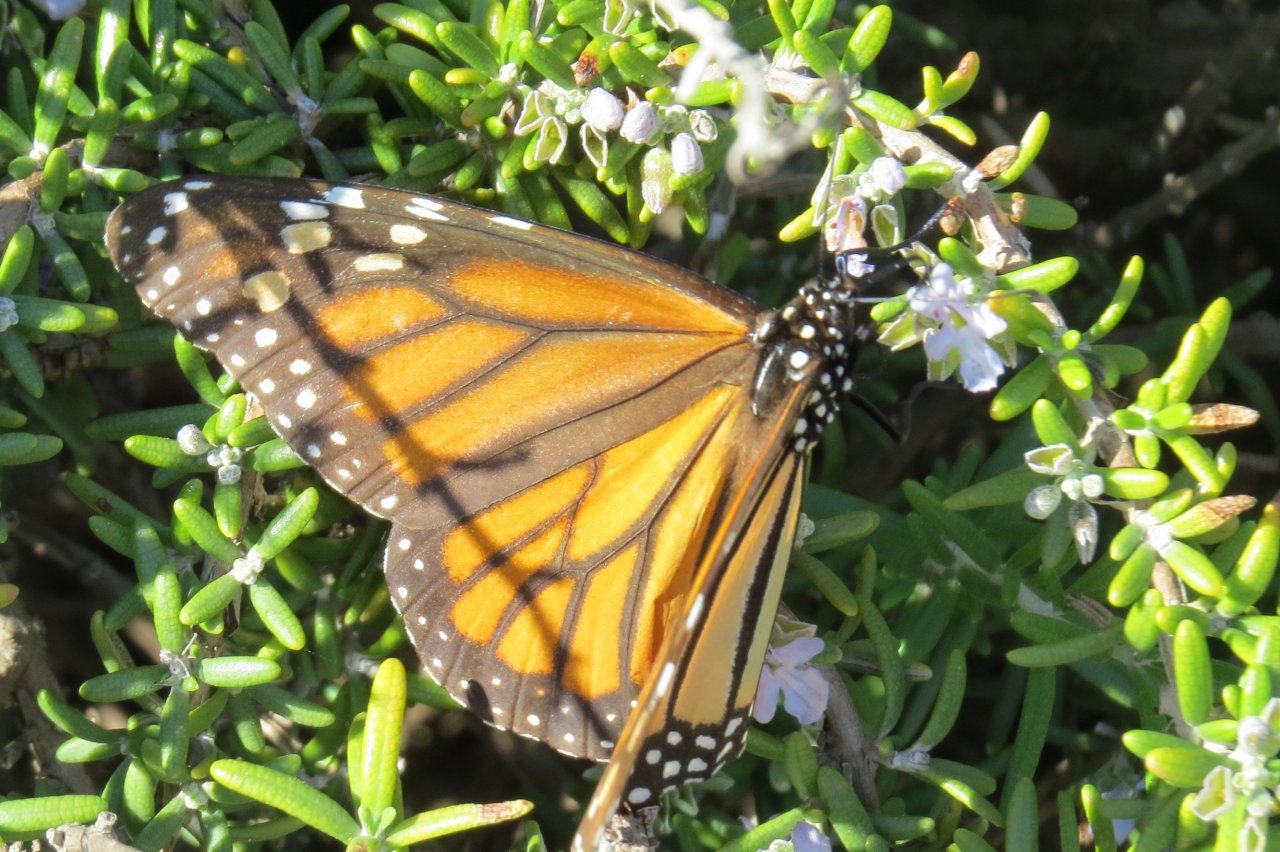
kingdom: Animalia
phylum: Arthropoda
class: Insecta
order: Lepidoptera
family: Nymphalidae
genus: Danaus
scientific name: Danaus plexippus
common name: Monarch
